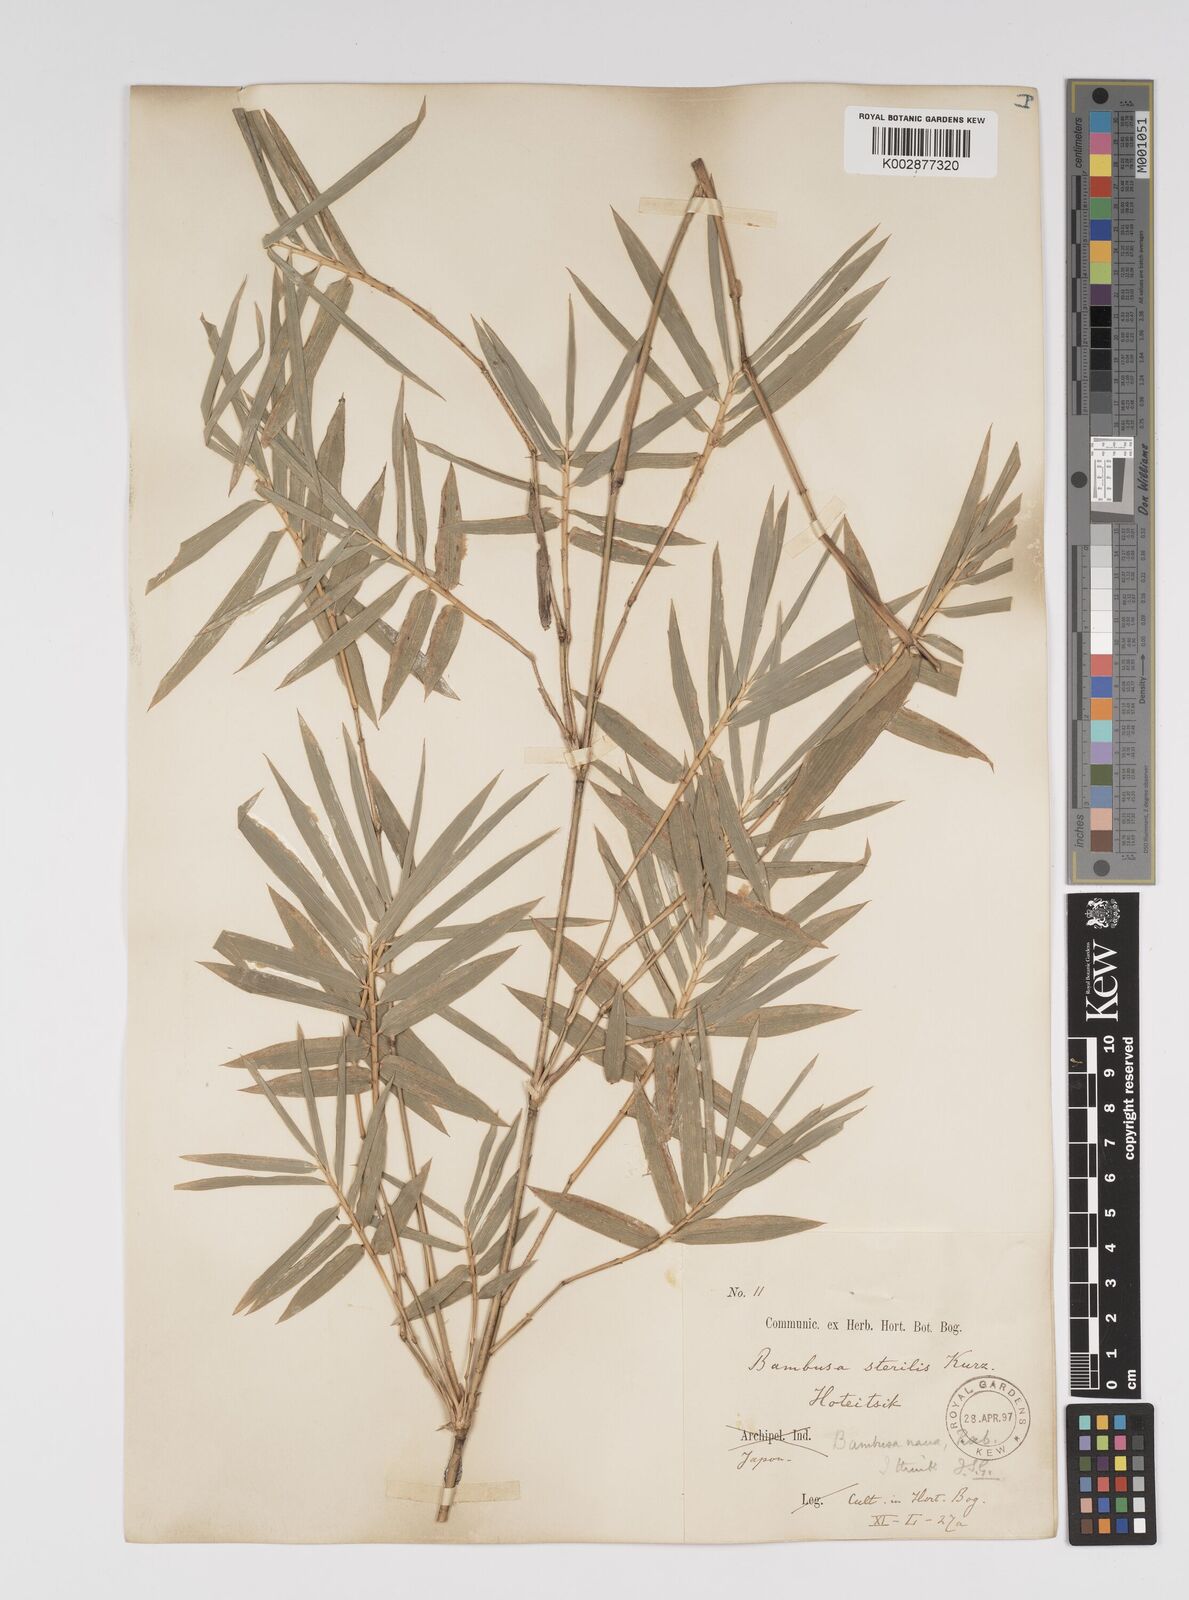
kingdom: Plantae
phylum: Tracheophyta
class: Liliopsida
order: Poales
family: Poaceae
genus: Bambusa
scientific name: Bambusa multiplex
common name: Hedge bamboo
